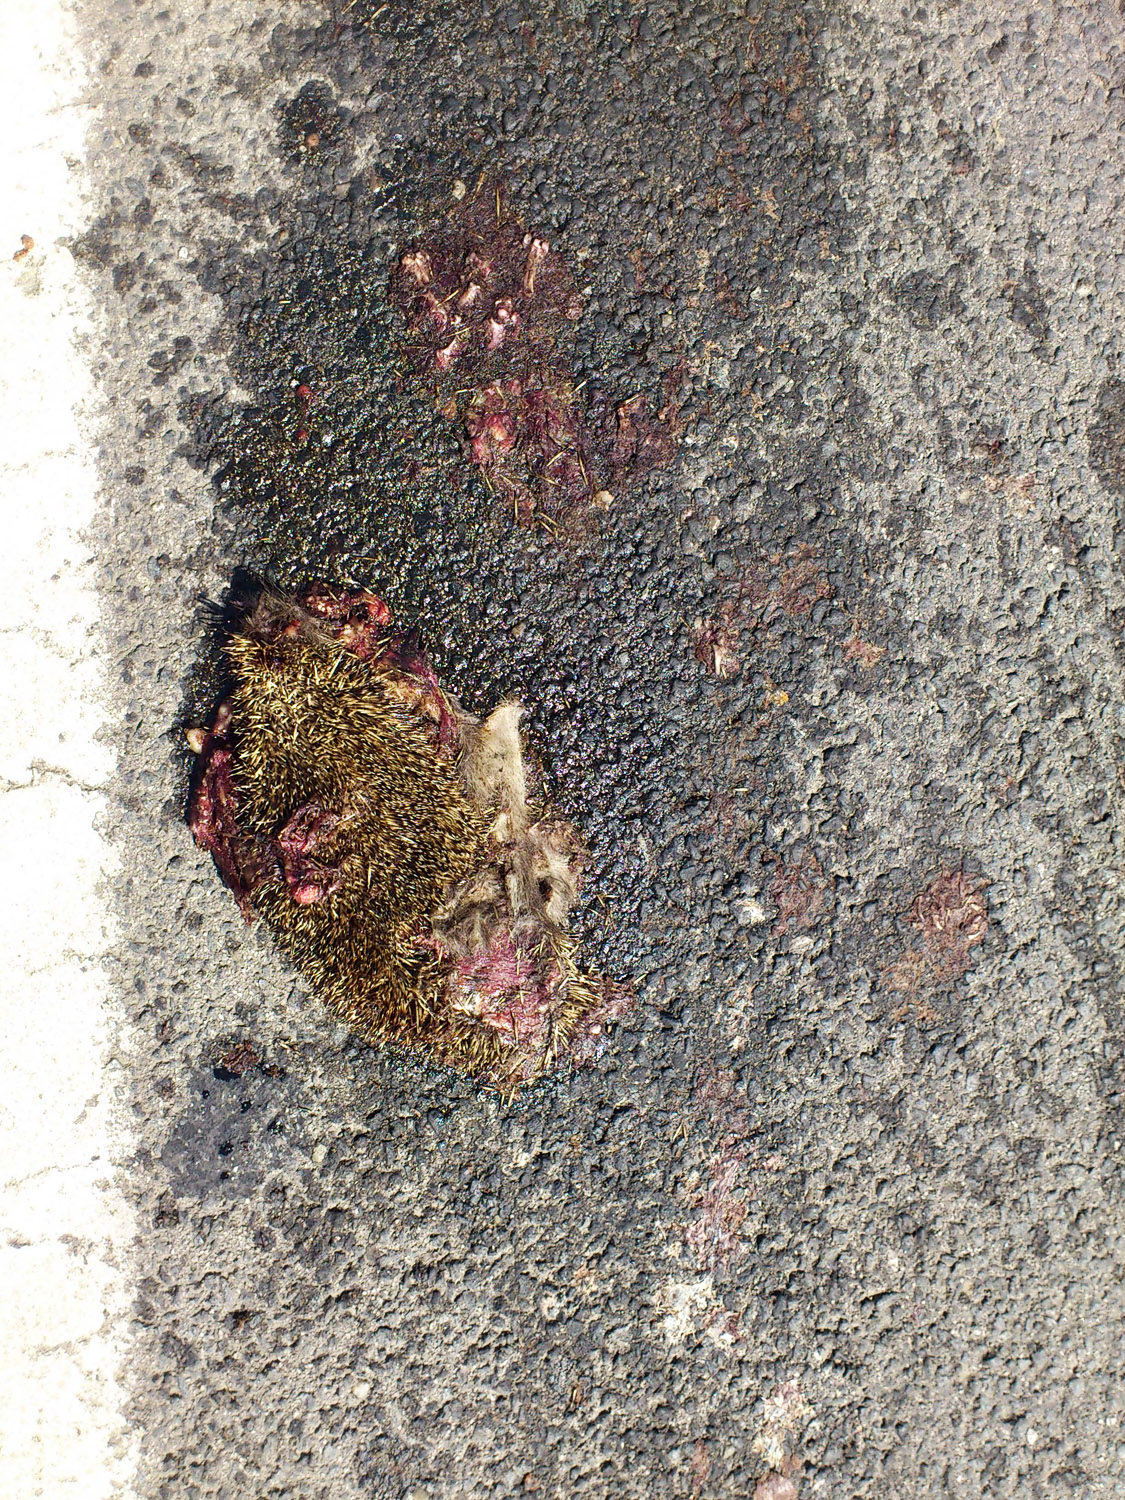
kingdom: Animalia
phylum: Chordata
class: Mammalia
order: Erinaceomorpha
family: Erinaceidae
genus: Erinaceus
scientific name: Erinaceus
